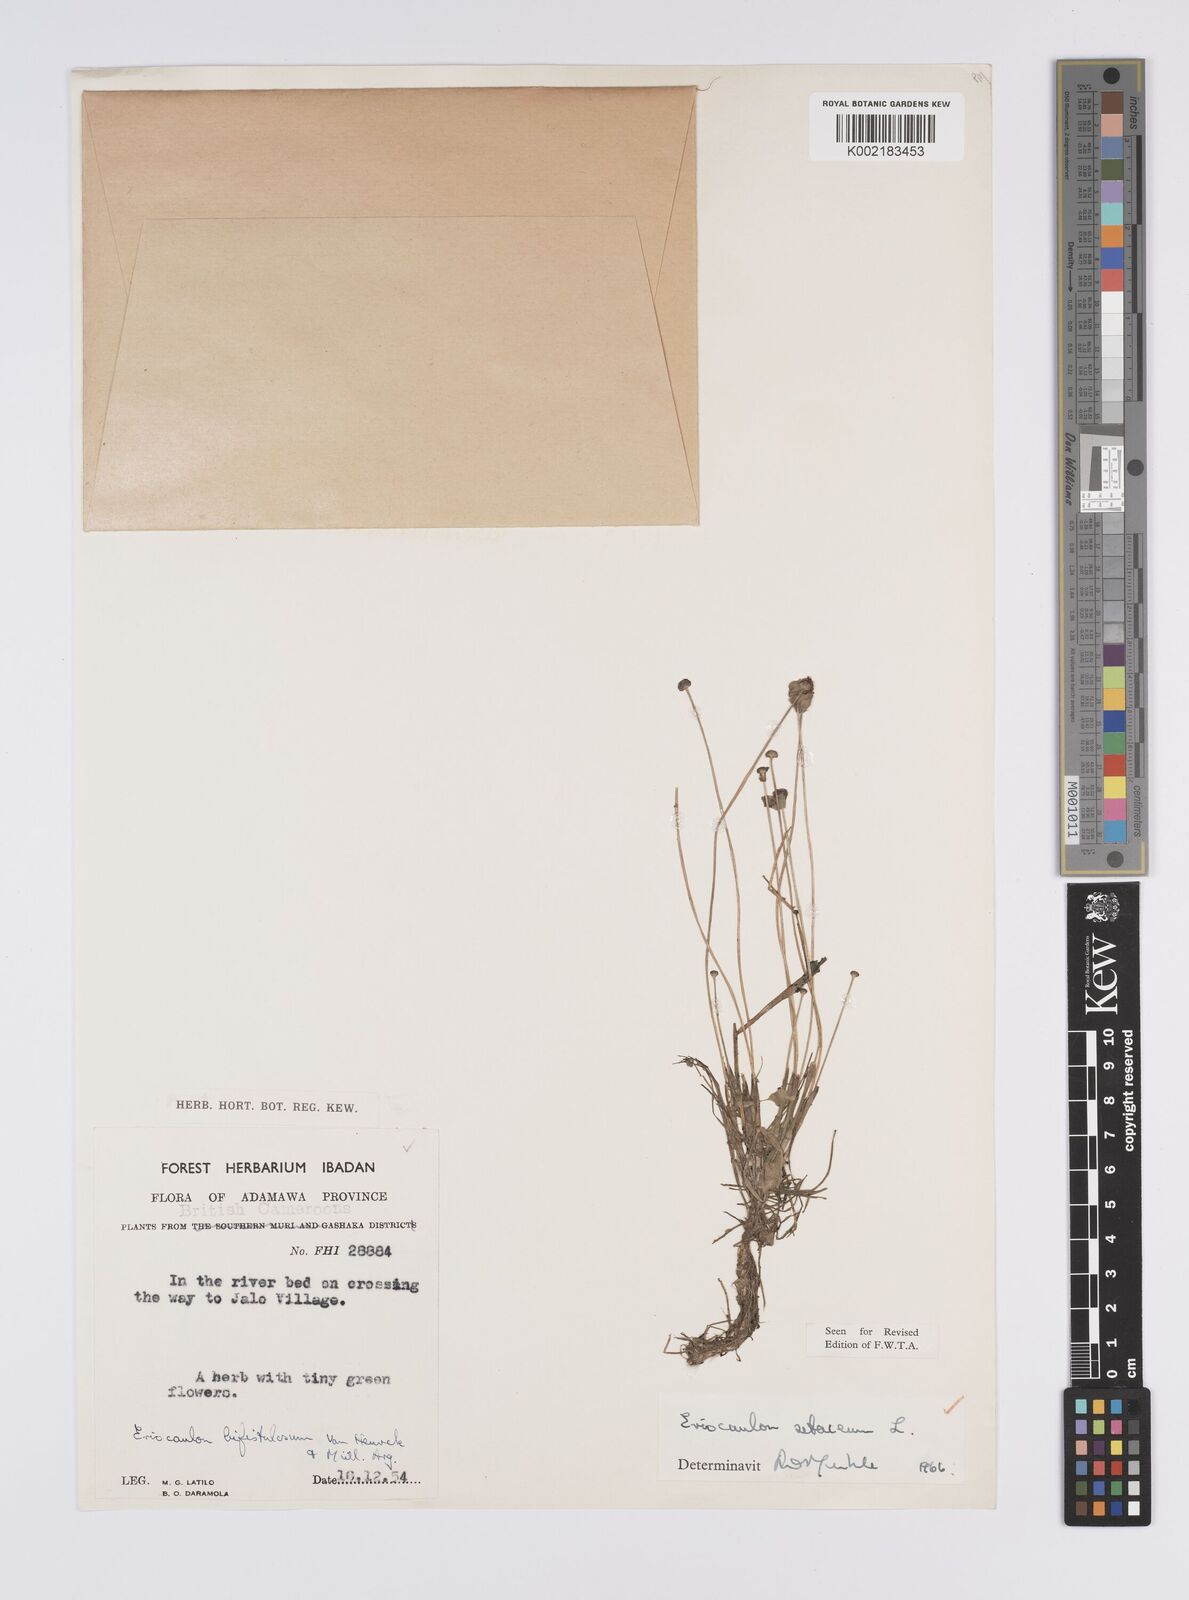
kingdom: Plantae
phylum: Tracheophyta
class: Liliopsida
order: Poales
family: Eriocaulaceae
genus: Eriocaulon
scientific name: Eriocaulon setaceum
